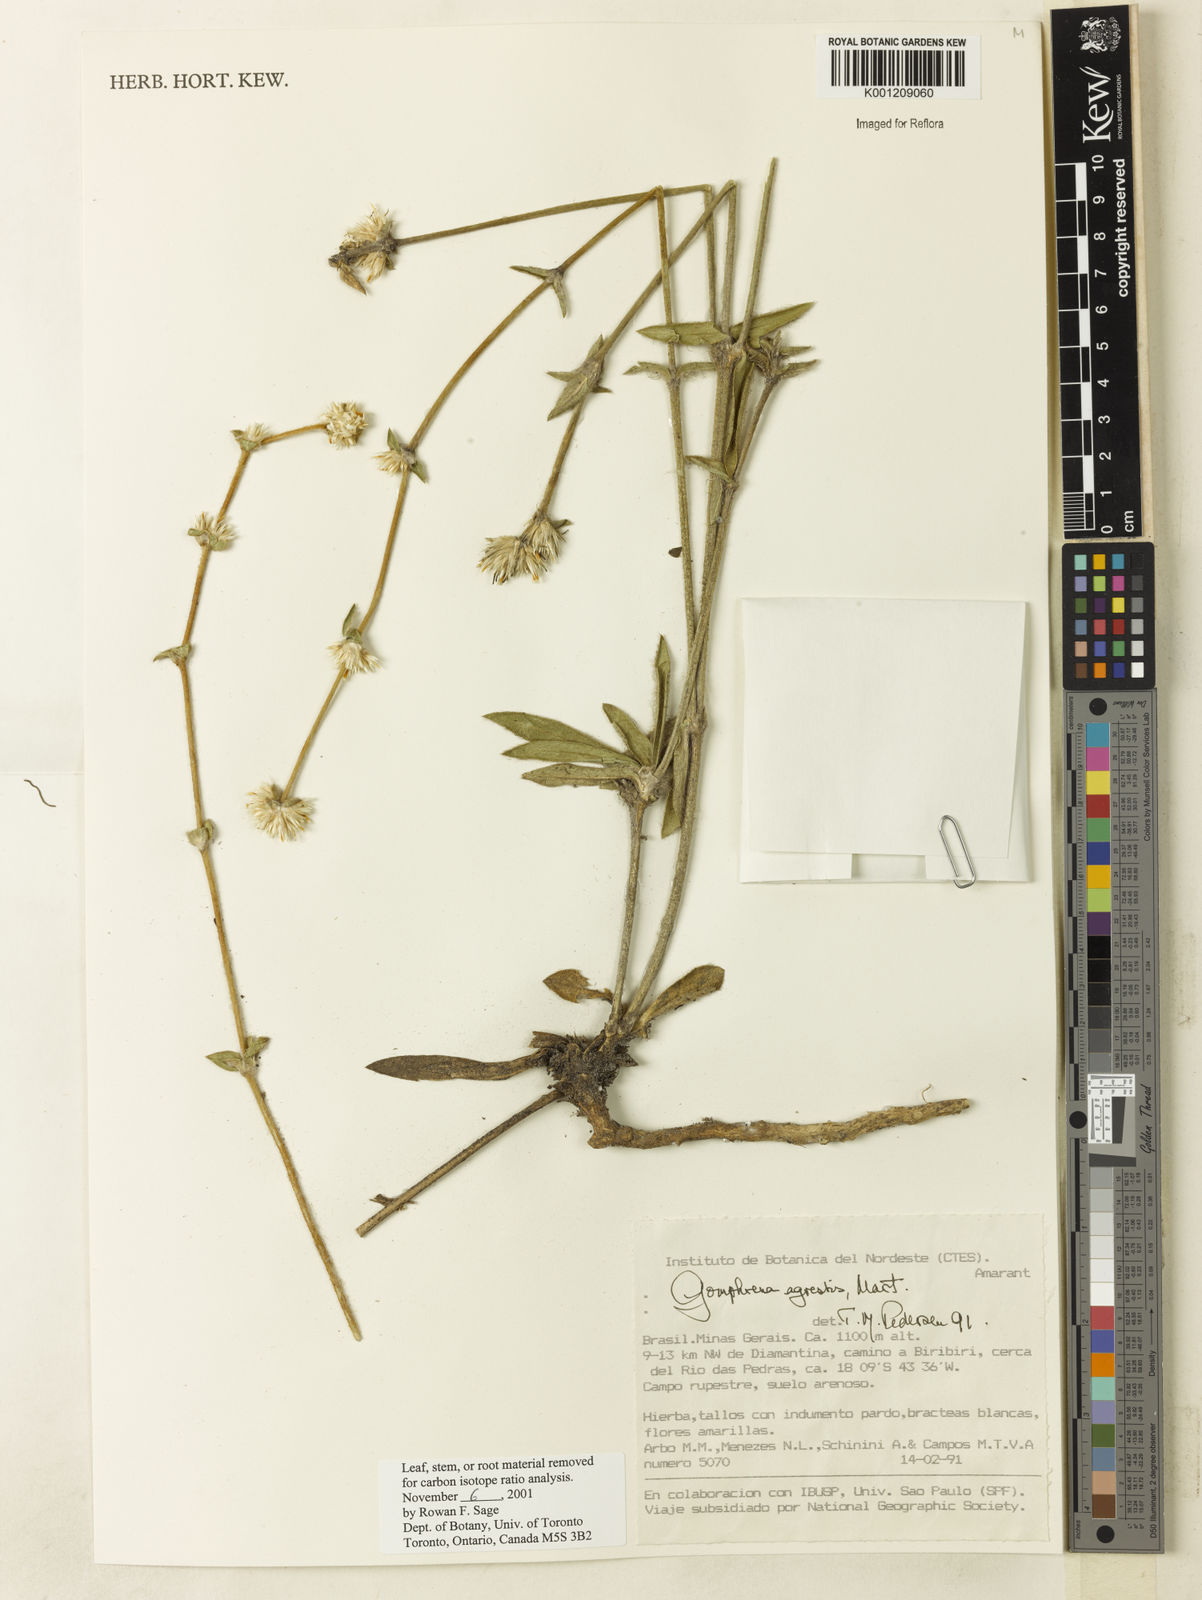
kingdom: Plantae
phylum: Tracheophyta
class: Magnoliopsida
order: Caryophyllales
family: Amaranthaceae
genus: Gomphrena
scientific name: Gomphrena agrestis
